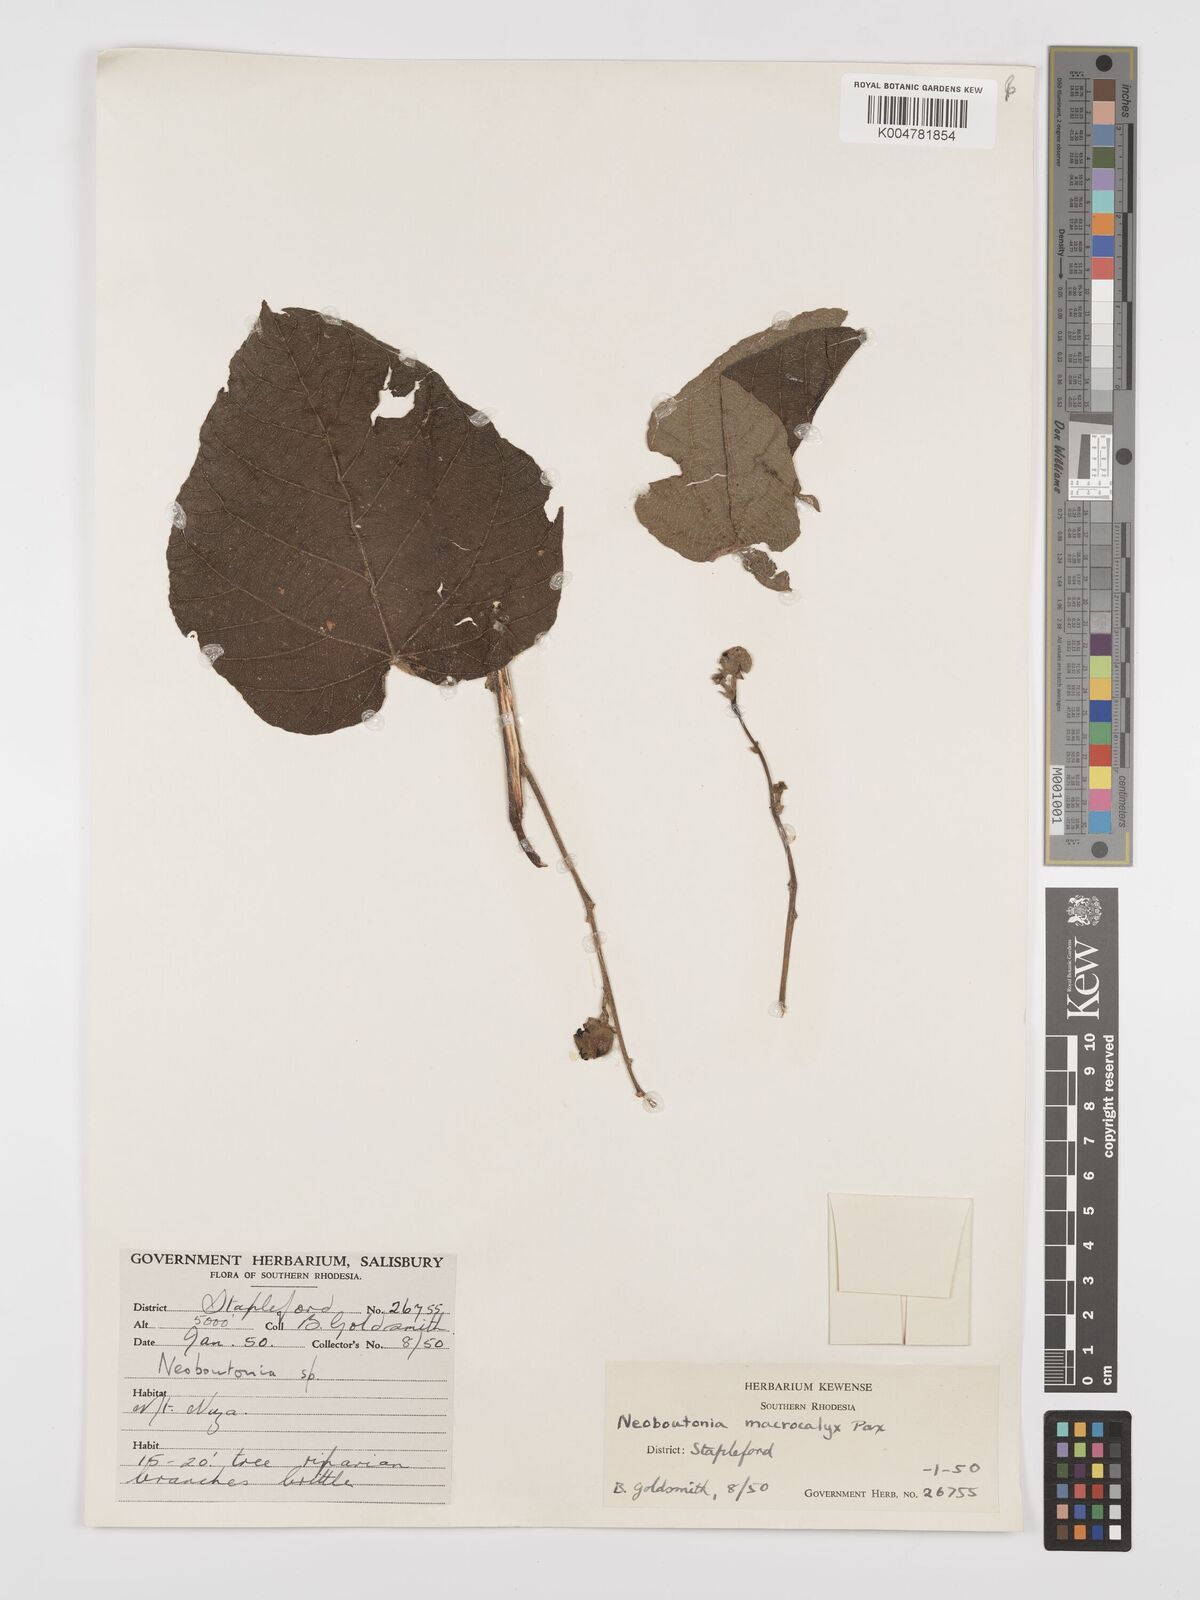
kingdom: Plantae
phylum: Tracheophyta
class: Magnoliopsida
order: Malpighiales
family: Euphorbiaceae
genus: Neoboutonia
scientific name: Neoboutonia macrocalyx
